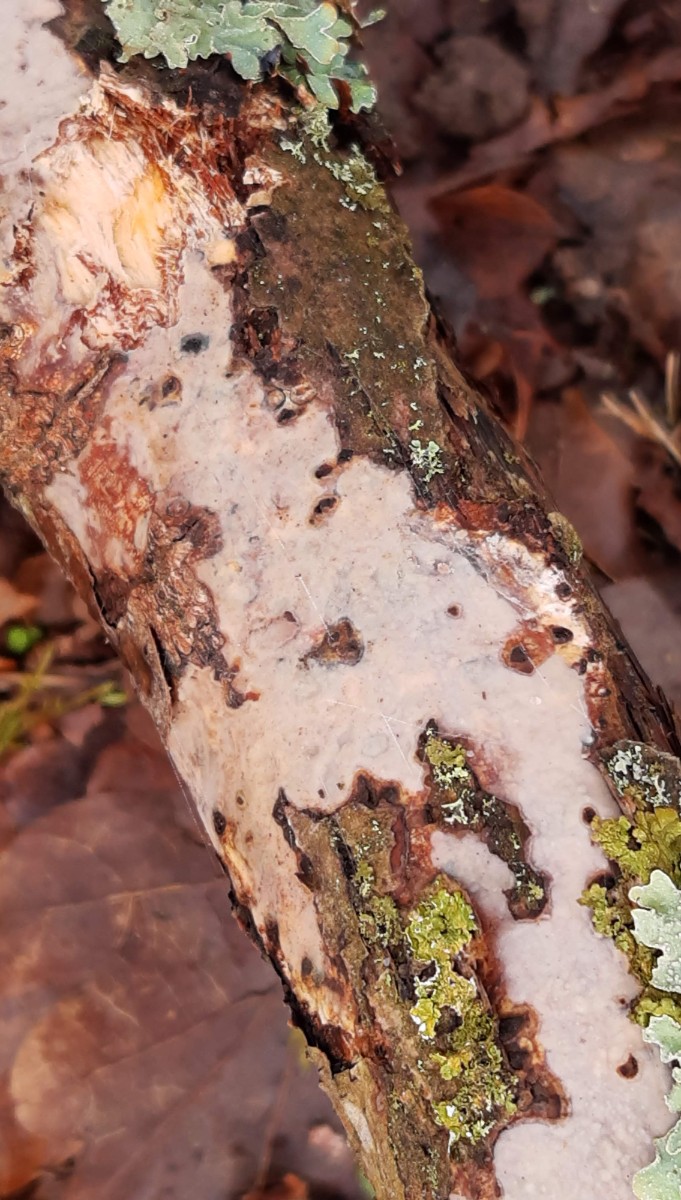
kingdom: Fungi
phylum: Basidiomycota
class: Agaricomycetes
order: Corticiales
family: Vuilleminiaceae
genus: Vuilleminia
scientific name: Vuilleminia comedens
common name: almindelig barksprænger
